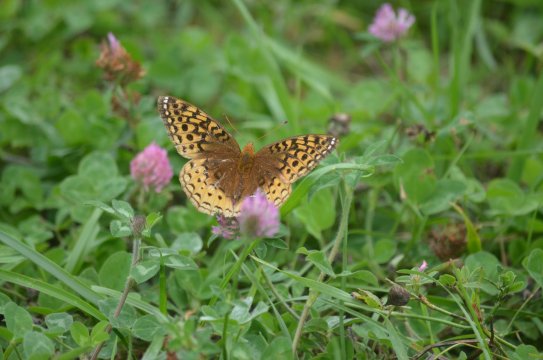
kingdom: Animalia
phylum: Arthropoda
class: Insecta
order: Lepidoptera
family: Nymphalidae
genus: Speyeria
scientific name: Speyeria cybele
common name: Great Spangled Fritillary
